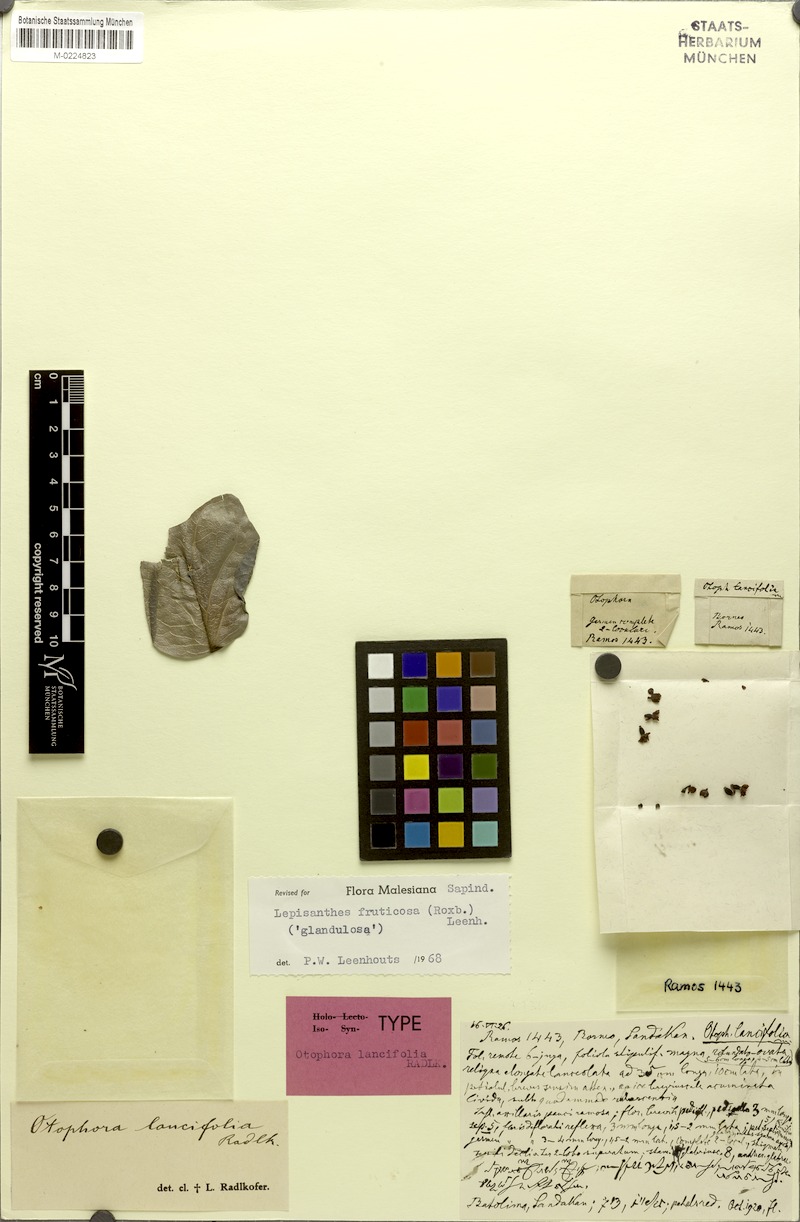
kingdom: Plantae
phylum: Tracheophyta
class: Magnoliopsida
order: Sapindales
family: Sapindaceae
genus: Lepisanthes
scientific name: Lepisanthes fruticosa
